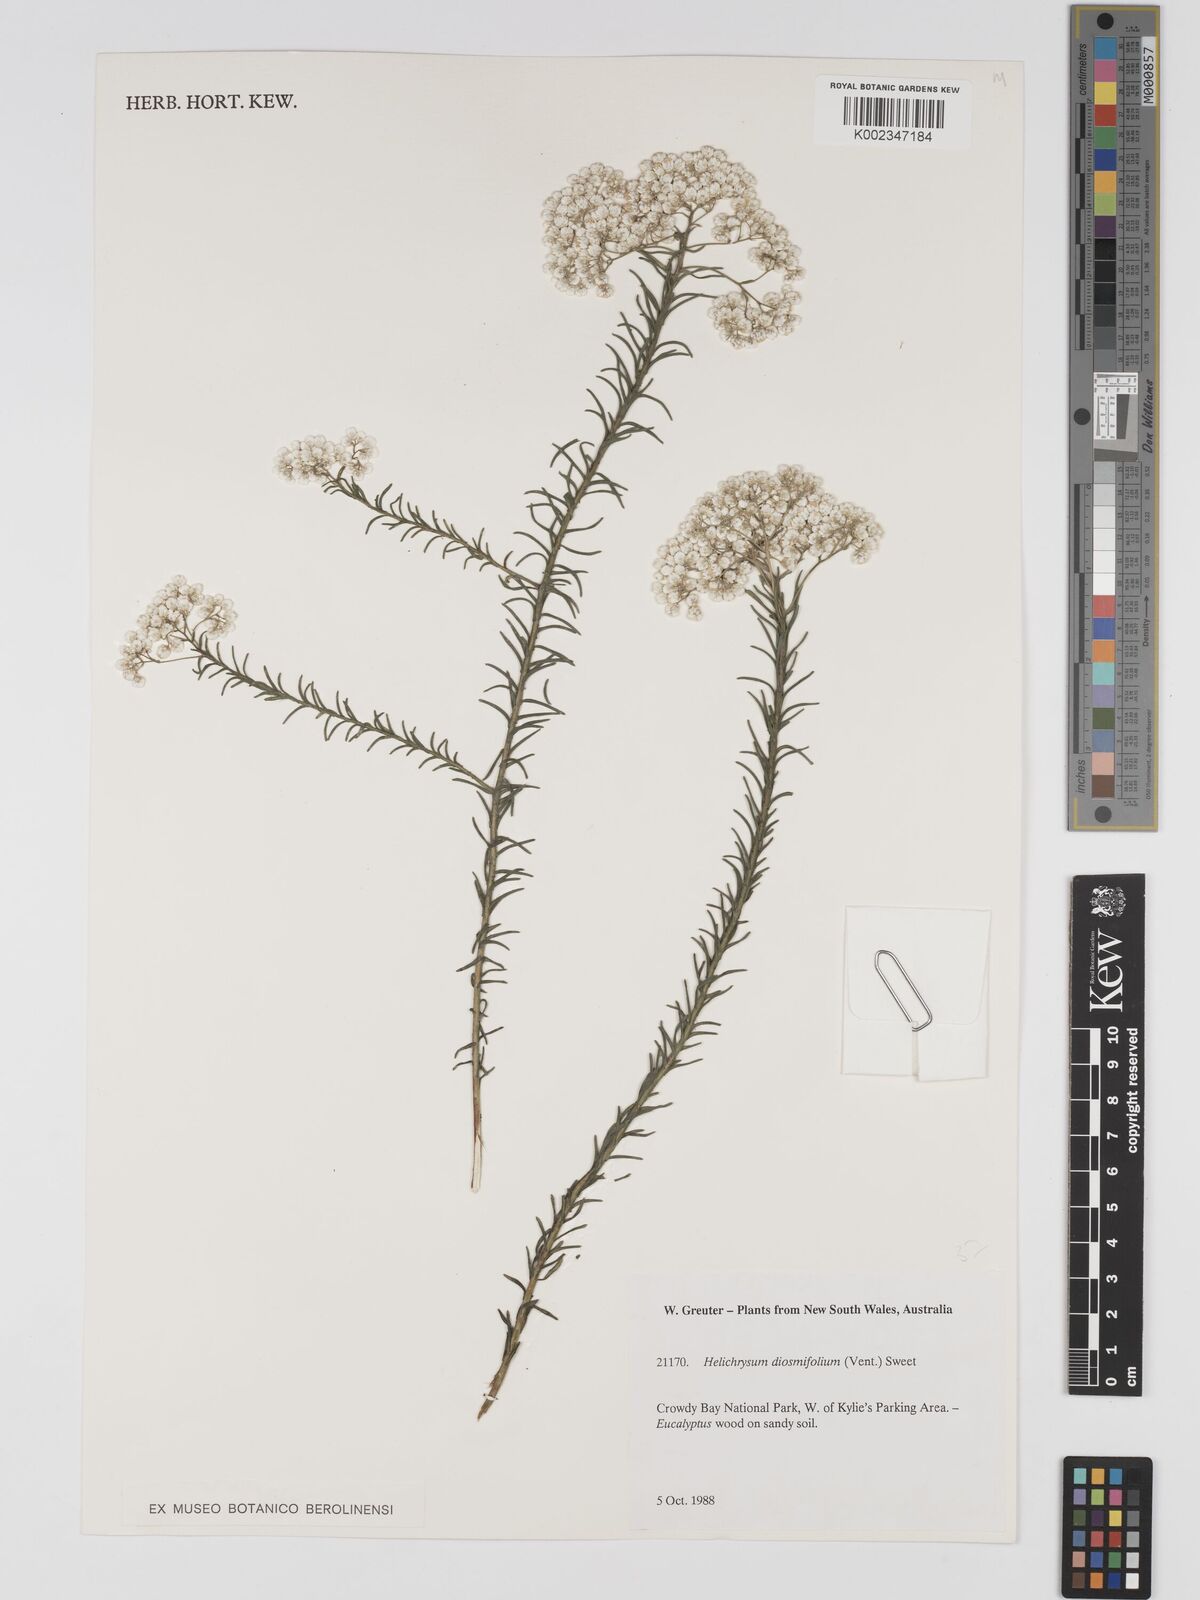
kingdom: Plantae
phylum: Tracheophyta
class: Magnoliopsida
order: Asterales
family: Asteraceae
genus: Ozothamnus
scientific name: Ozothamnus diosmifolius
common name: White-dogwood
